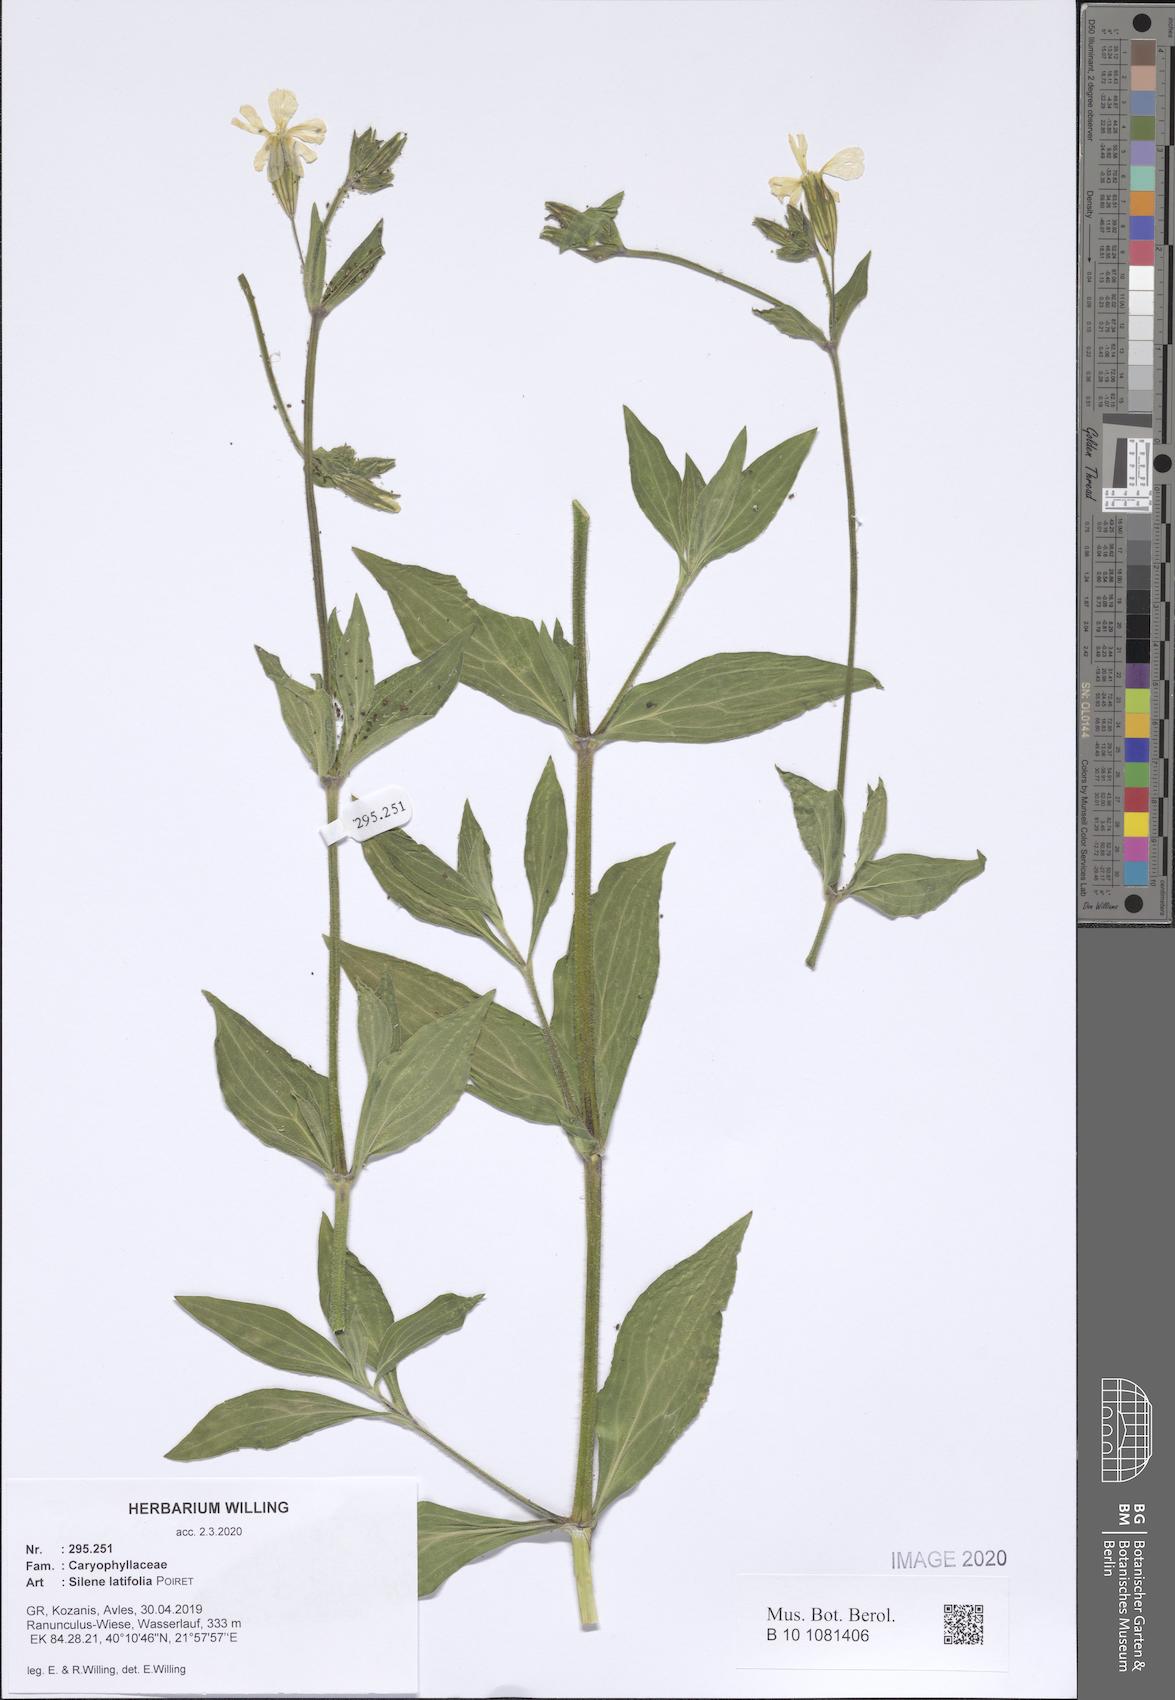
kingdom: Plantae
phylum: Tracheophyta
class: Magnoliopsida
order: Caryophyllales
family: Caryophyllaceae
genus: Silene
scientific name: Silene latifolia
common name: White campion
